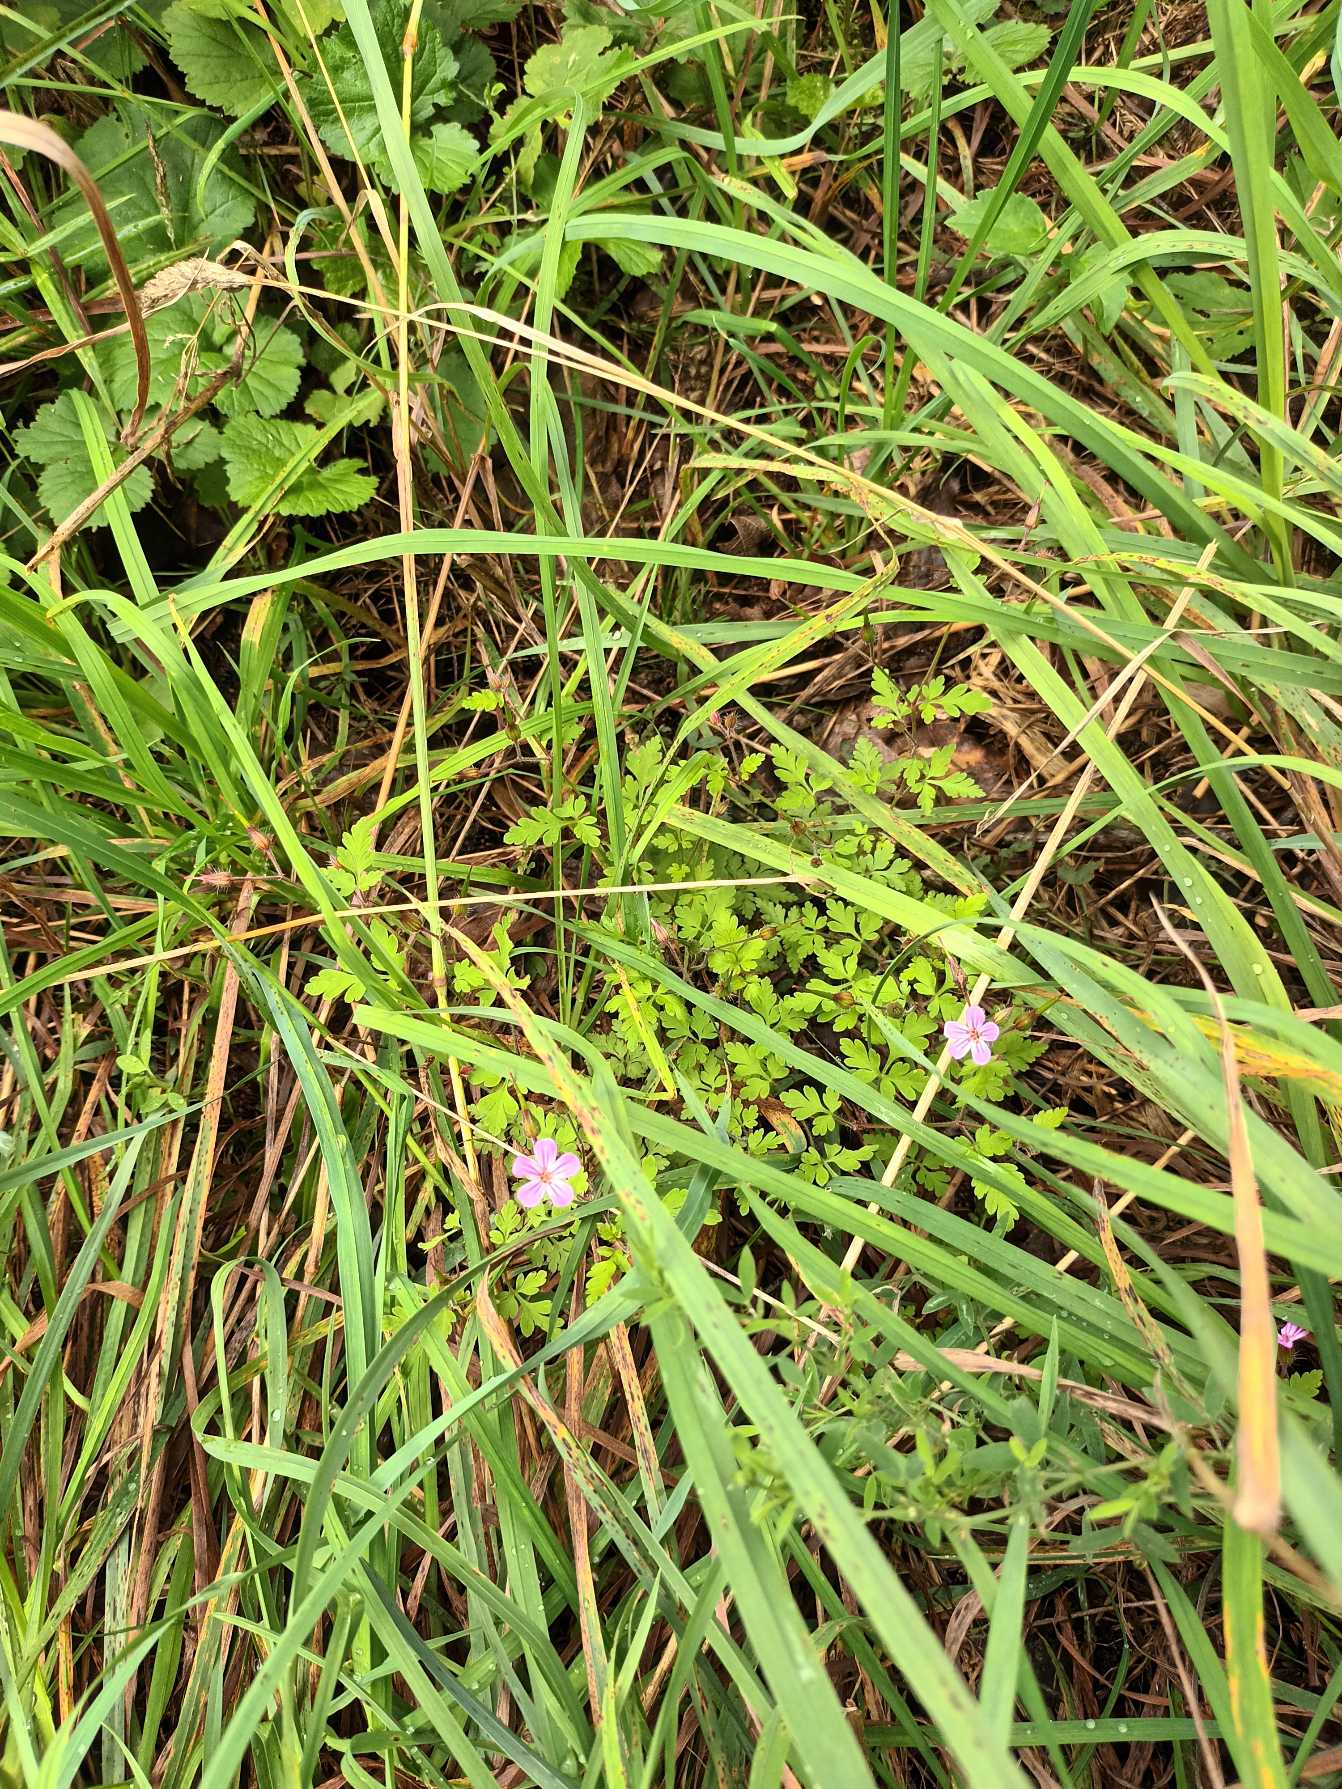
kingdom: Plantae
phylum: Tracheophyta
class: Magnoliopsida
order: Geraniales
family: Geraniaceae
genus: Geranium
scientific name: Geranium robertianum
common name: Stinkende storkenæb
